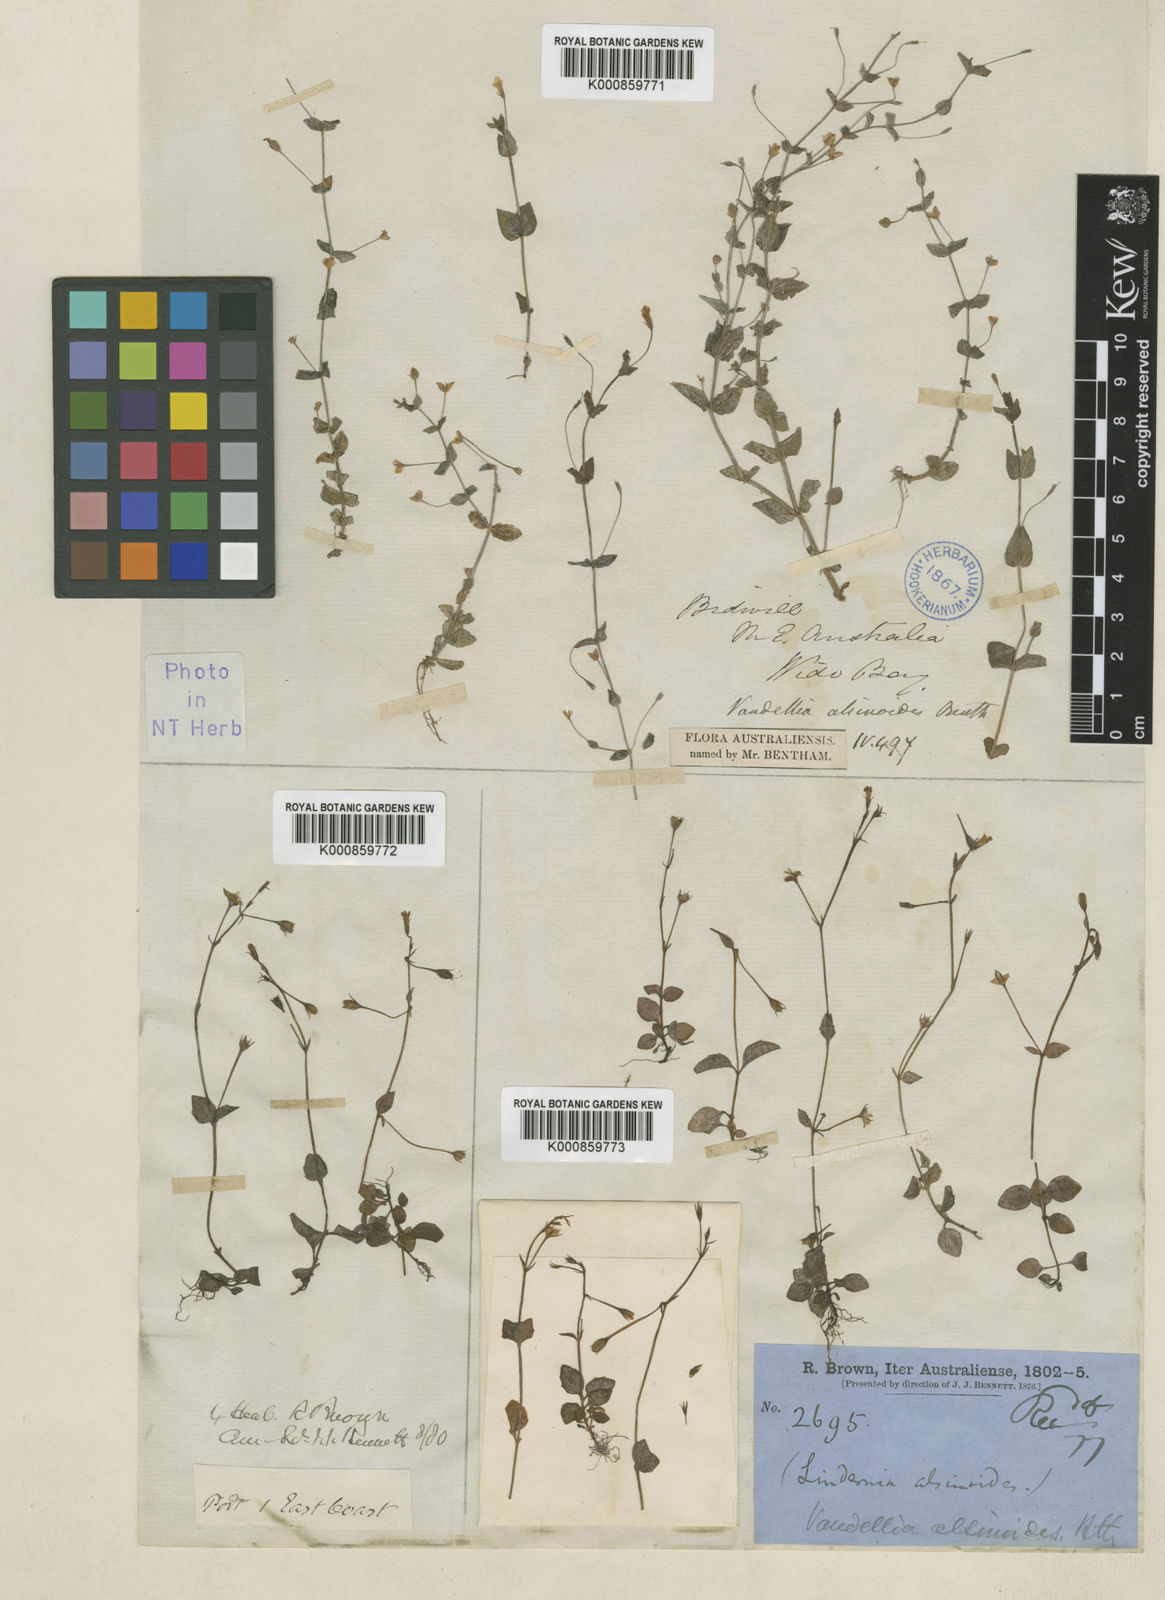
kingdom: Plantae
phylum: Tracheophyta
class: Magnoliopsida
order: Lamiales
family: Linderniaceae
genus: Lindernia
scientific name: Lindernia alsinoides
